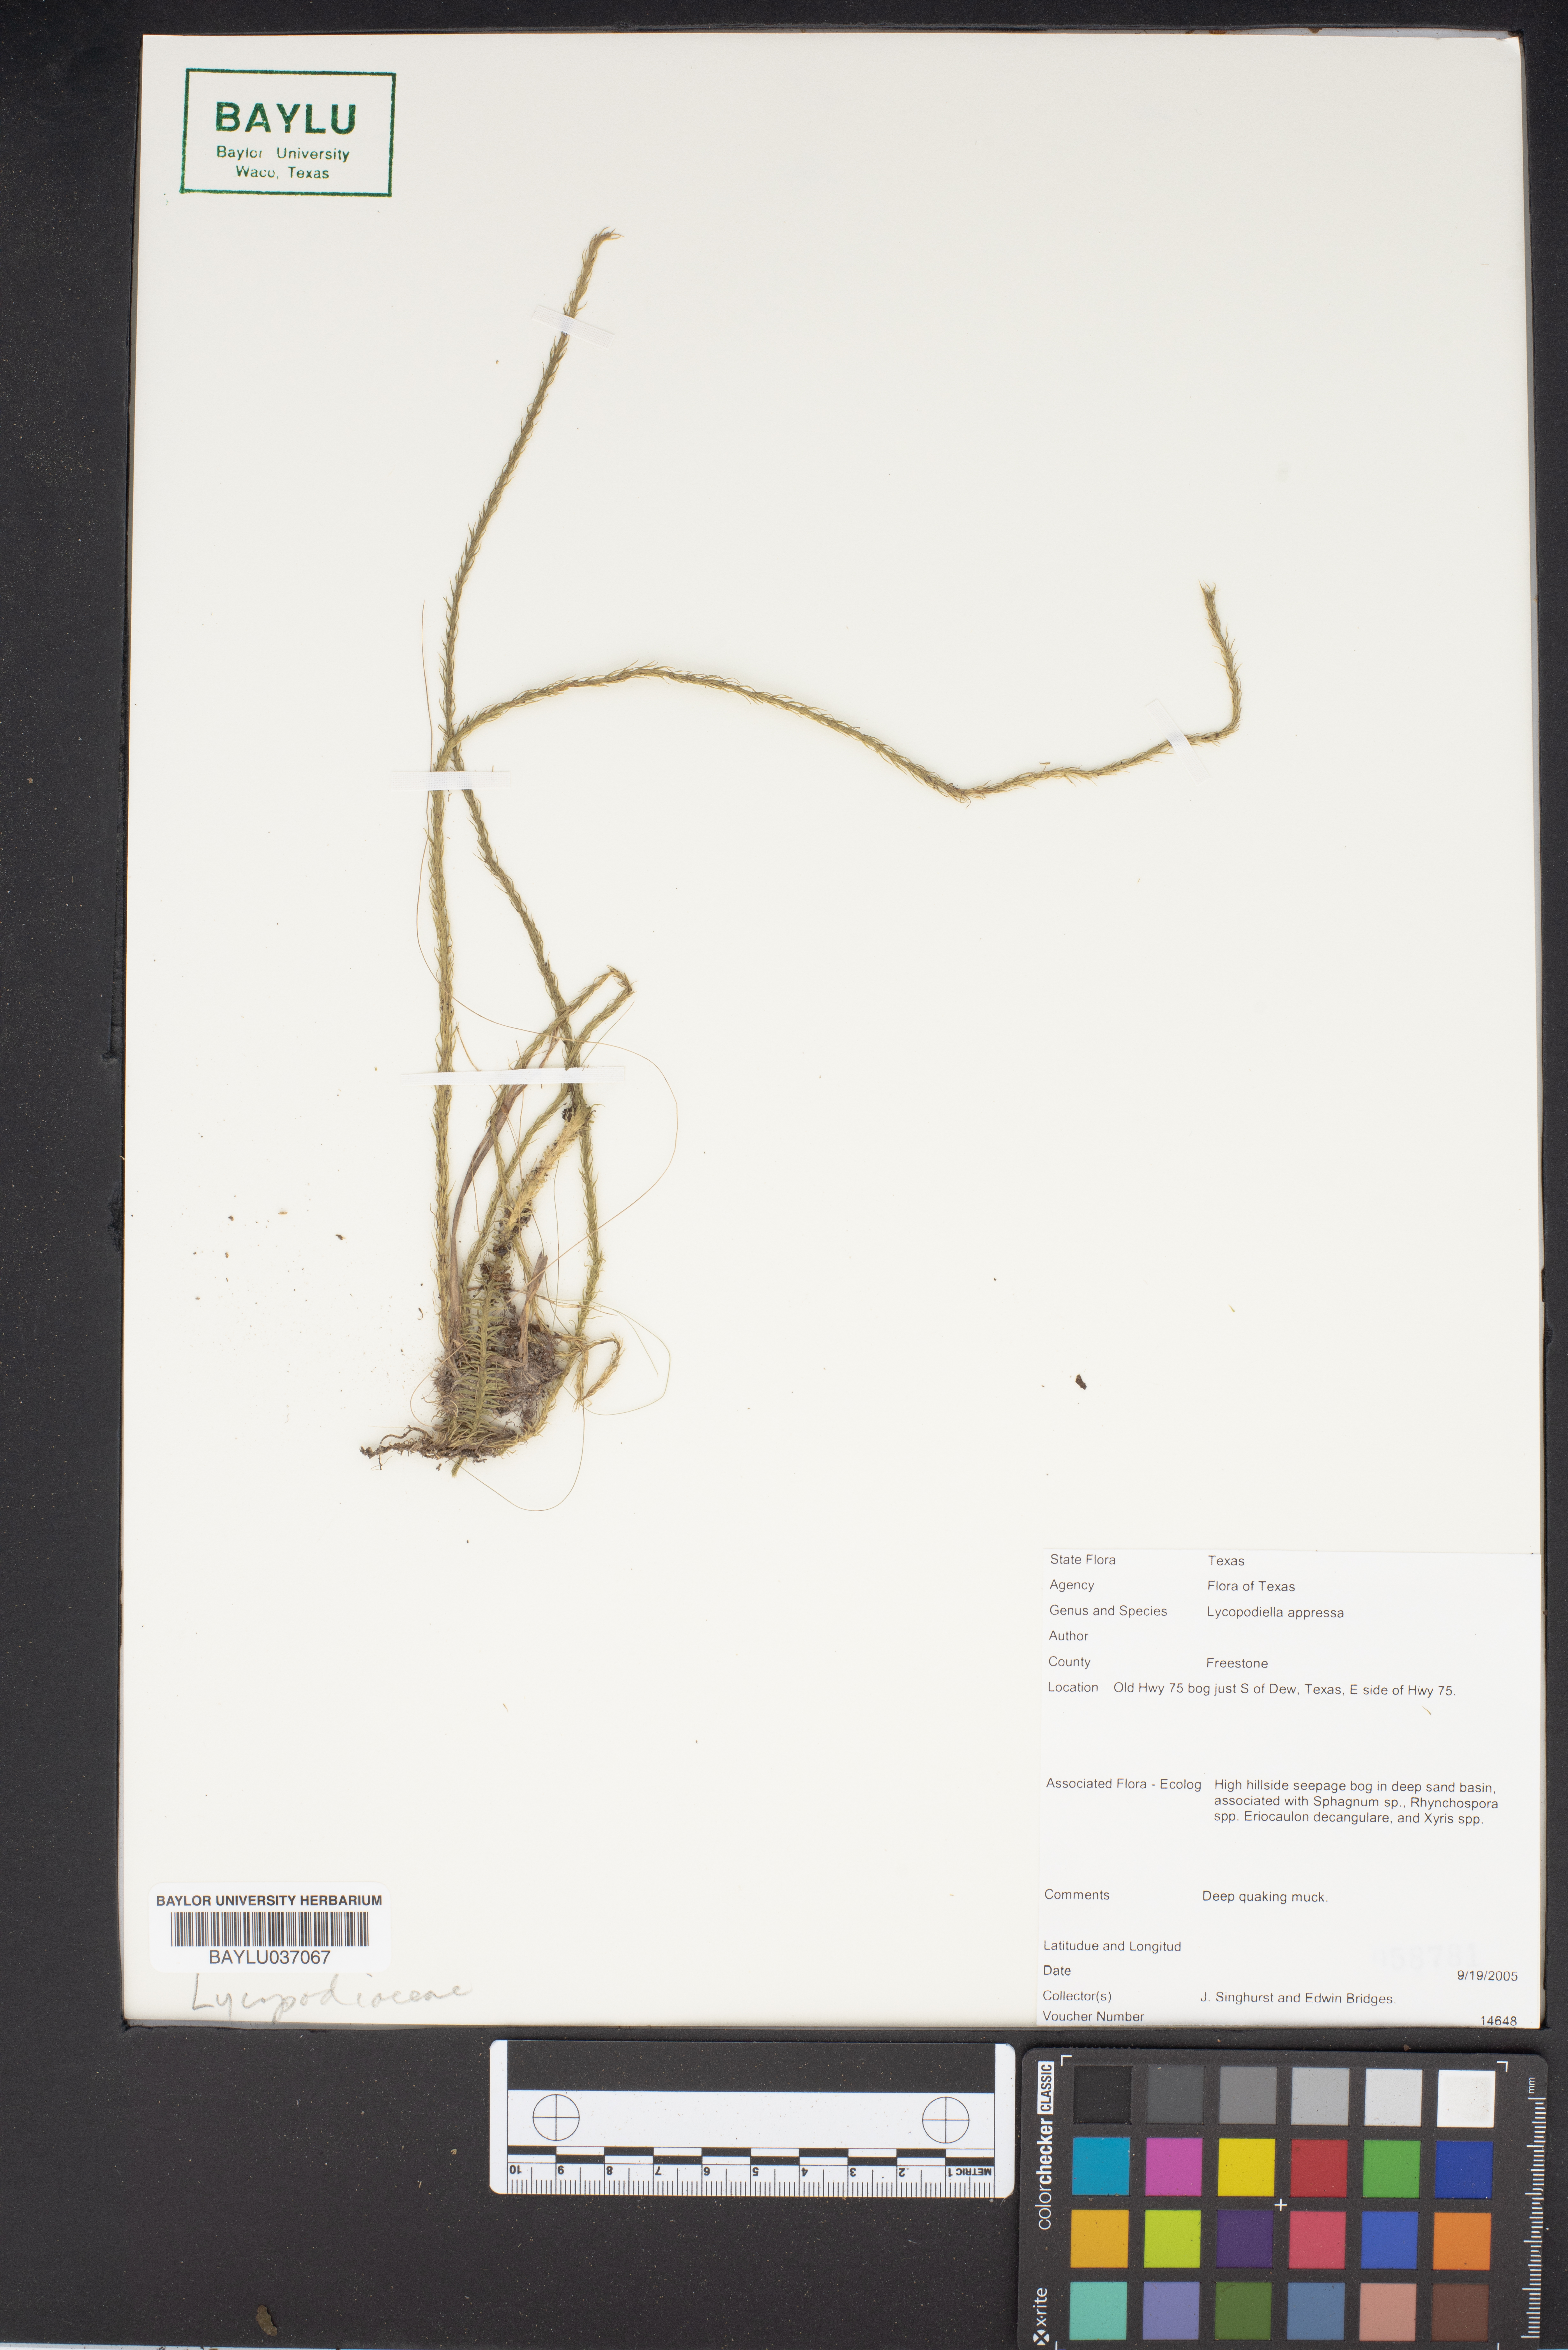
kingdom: Plantae
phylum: Tracheophyta
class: Lycopodiopsida
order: Lycopodiales
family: Lycopodiaceae
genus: Lycopodiella
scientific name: Lycopodiella appressa
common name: Appressed bog clubmoss
